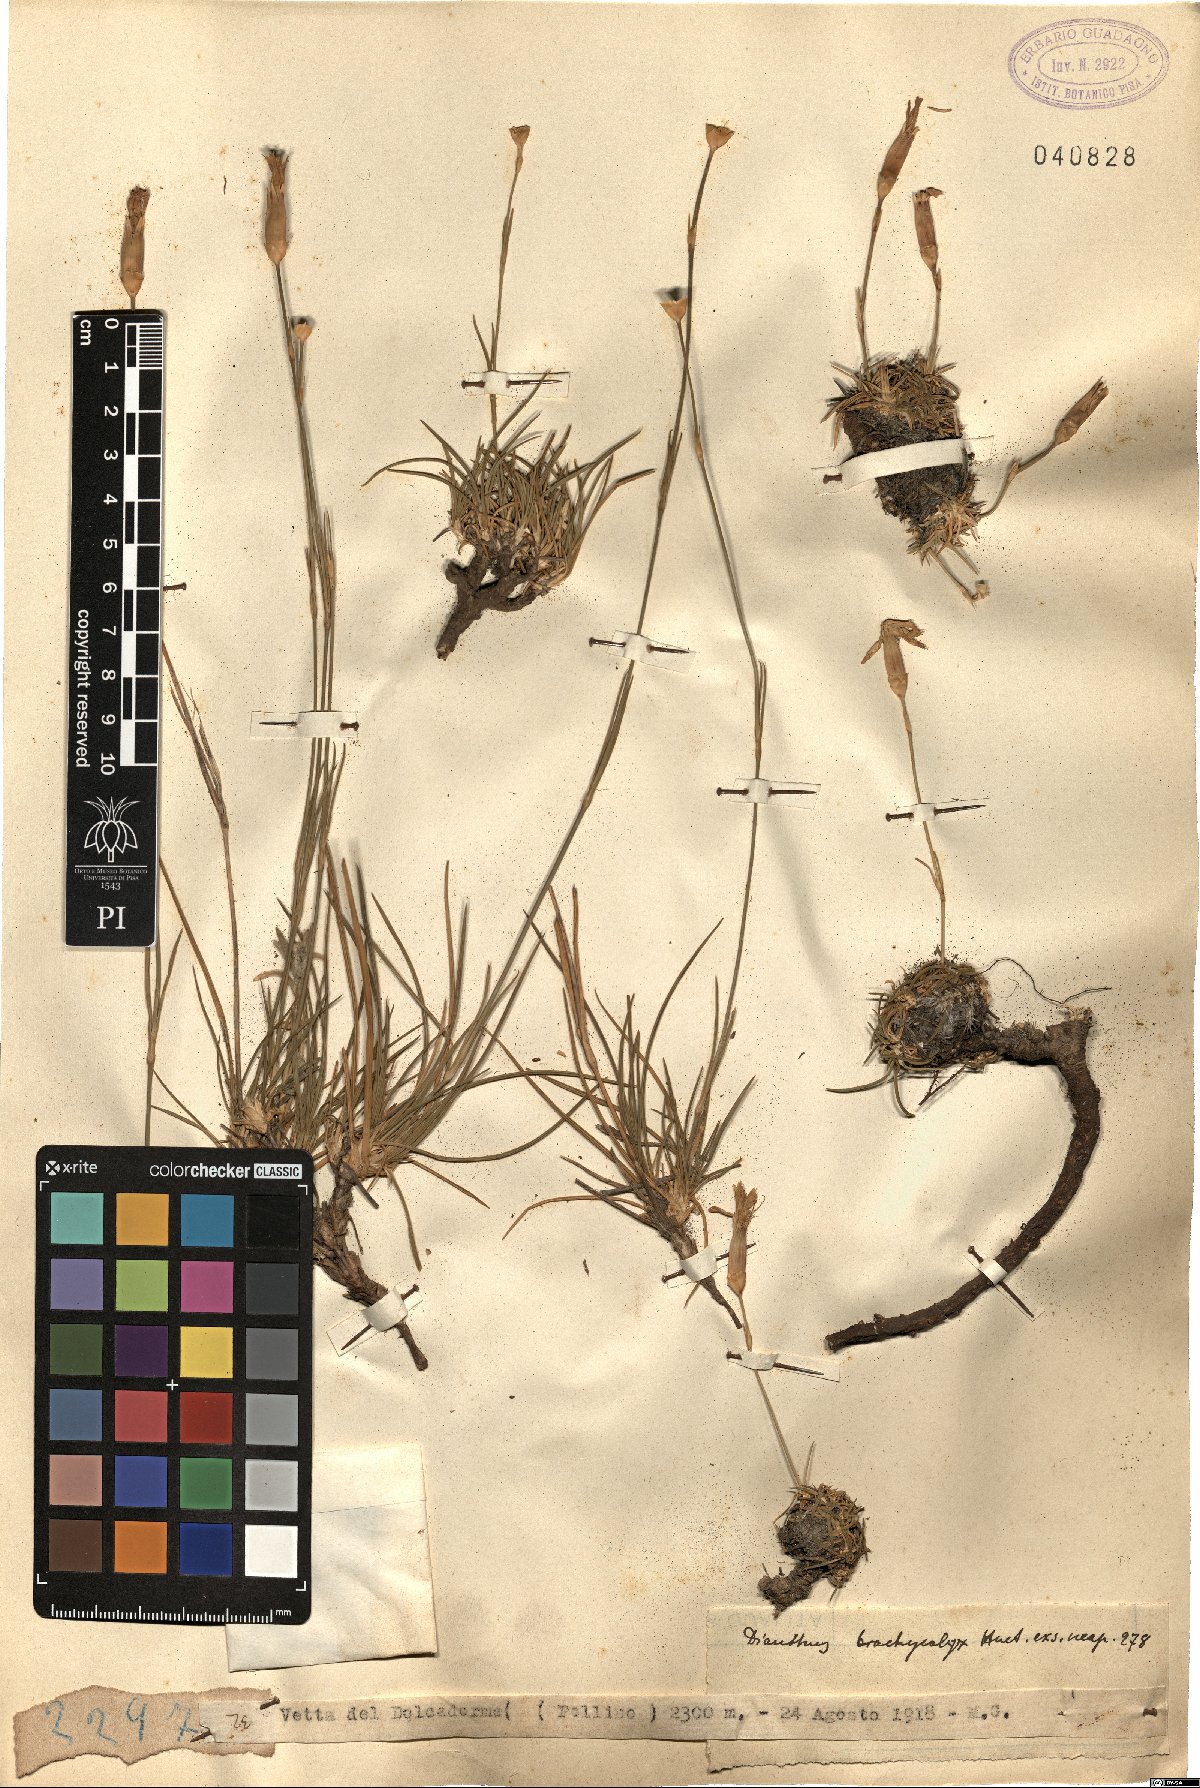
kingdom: Plantae
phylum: Tracheophyta
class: Magnoliopsida
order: Caryophyllales
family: Caryophyllaceae
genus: Dianthus
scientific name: Dianthus brachycalyx
